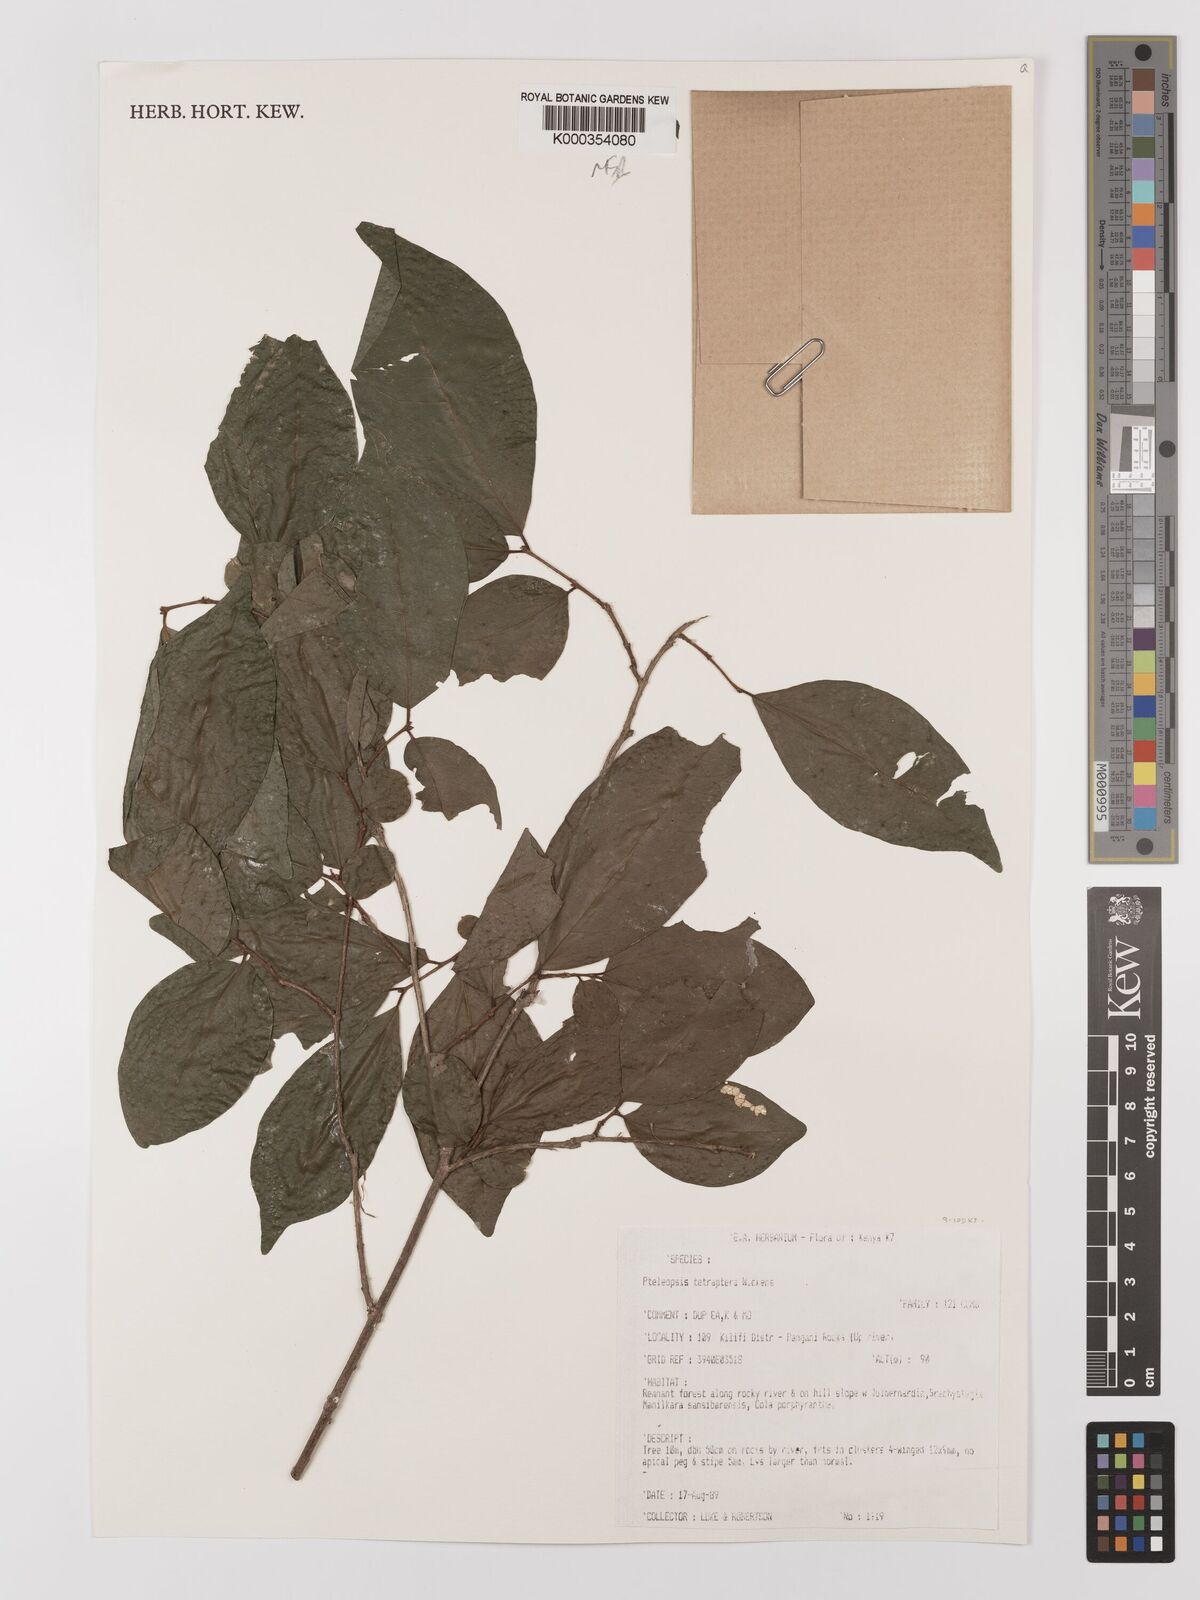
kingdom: Plantae
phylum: Tracheophyta
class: Magnoliopsida
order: Myrtales
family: Combretaceae
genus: Terminalia
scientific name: Terminalia tetraptera
